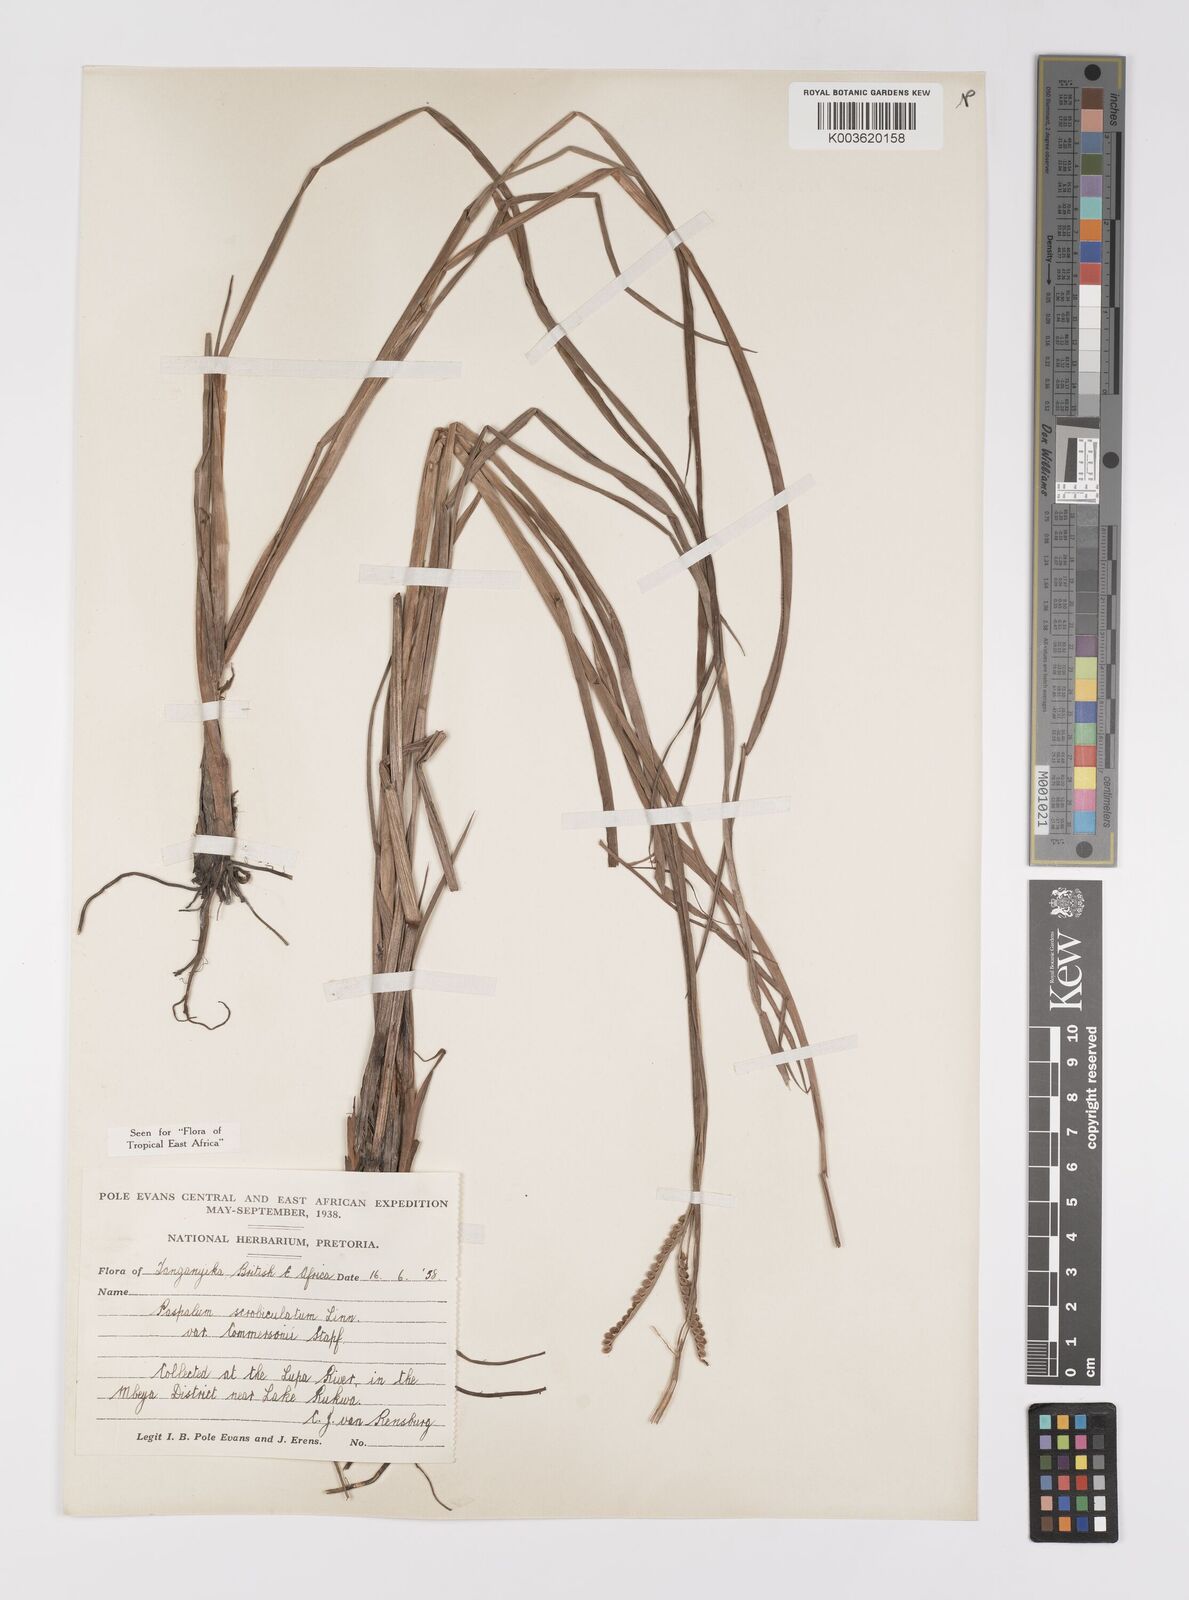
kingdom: Plantae
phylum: Tracheophyta
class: Liliopsida
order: Poales
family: Poaceae
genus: Paspalum
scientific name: Paspalum scrobiculatum
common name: Kodo millet
